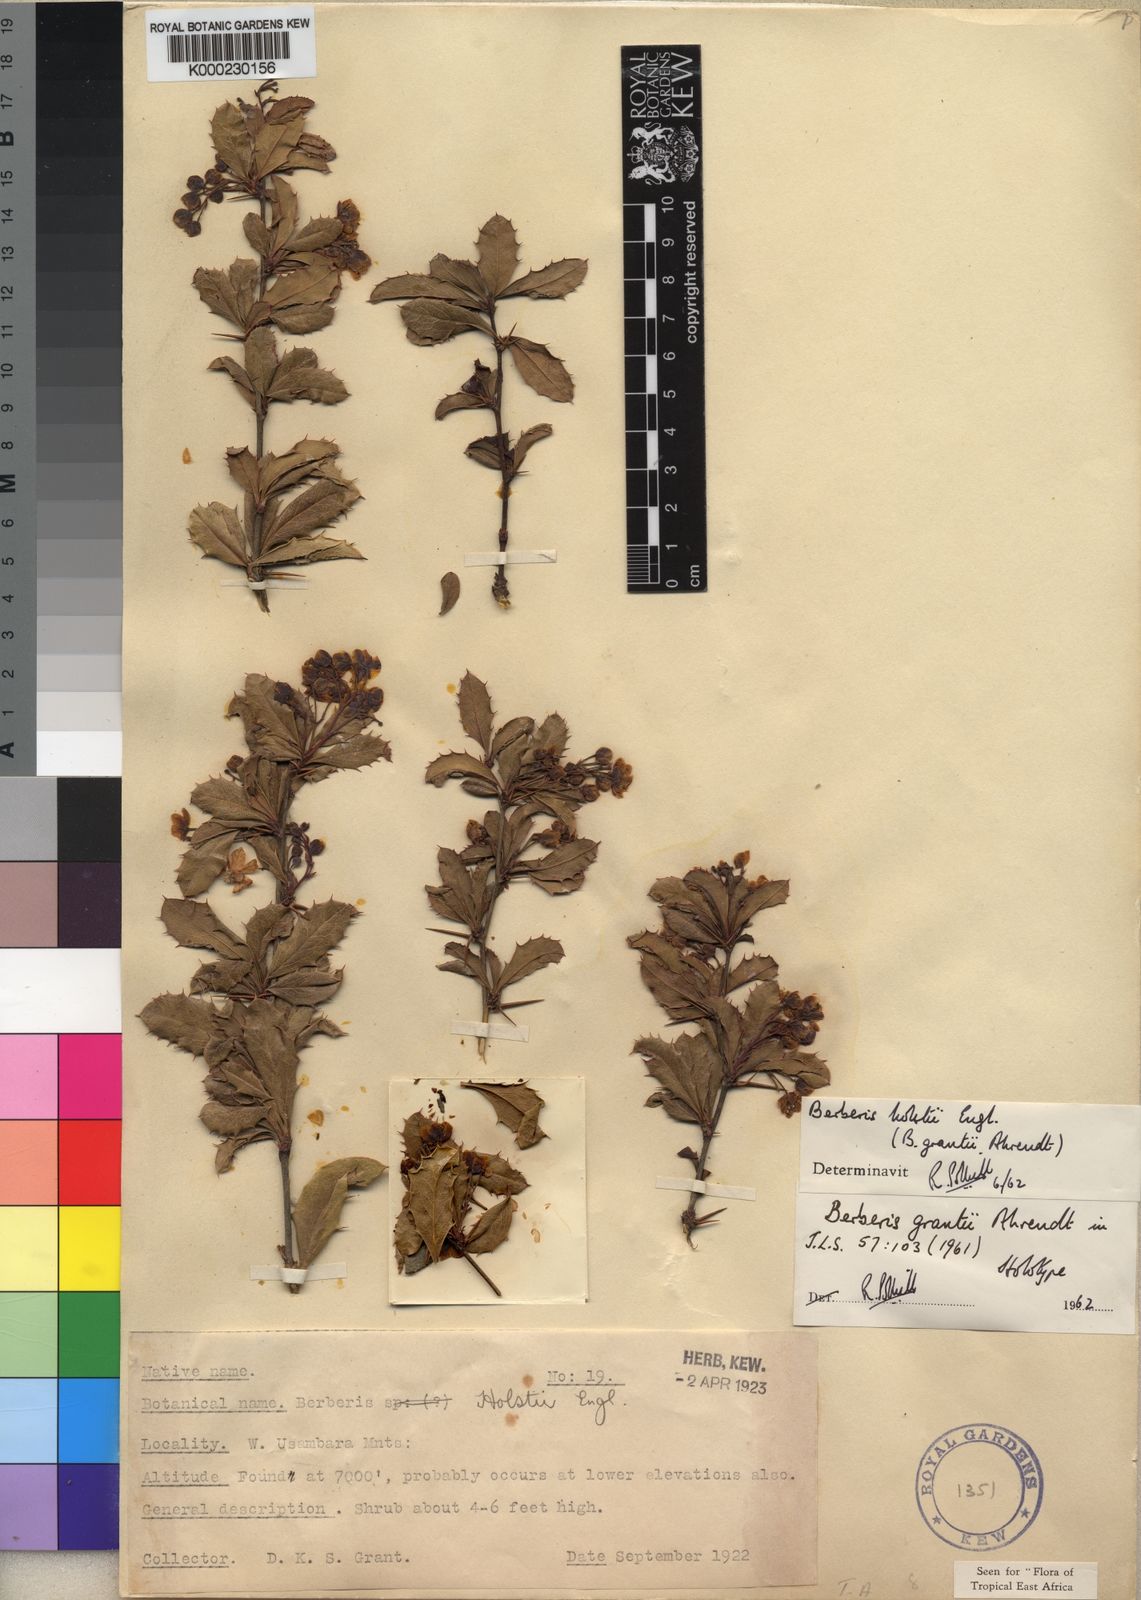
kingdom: Plantae
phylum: Tracheophyta
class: Magnoliopsida
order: Ranunculales
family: Berberidaceae
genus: Berberis
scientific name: Berberis holstii
